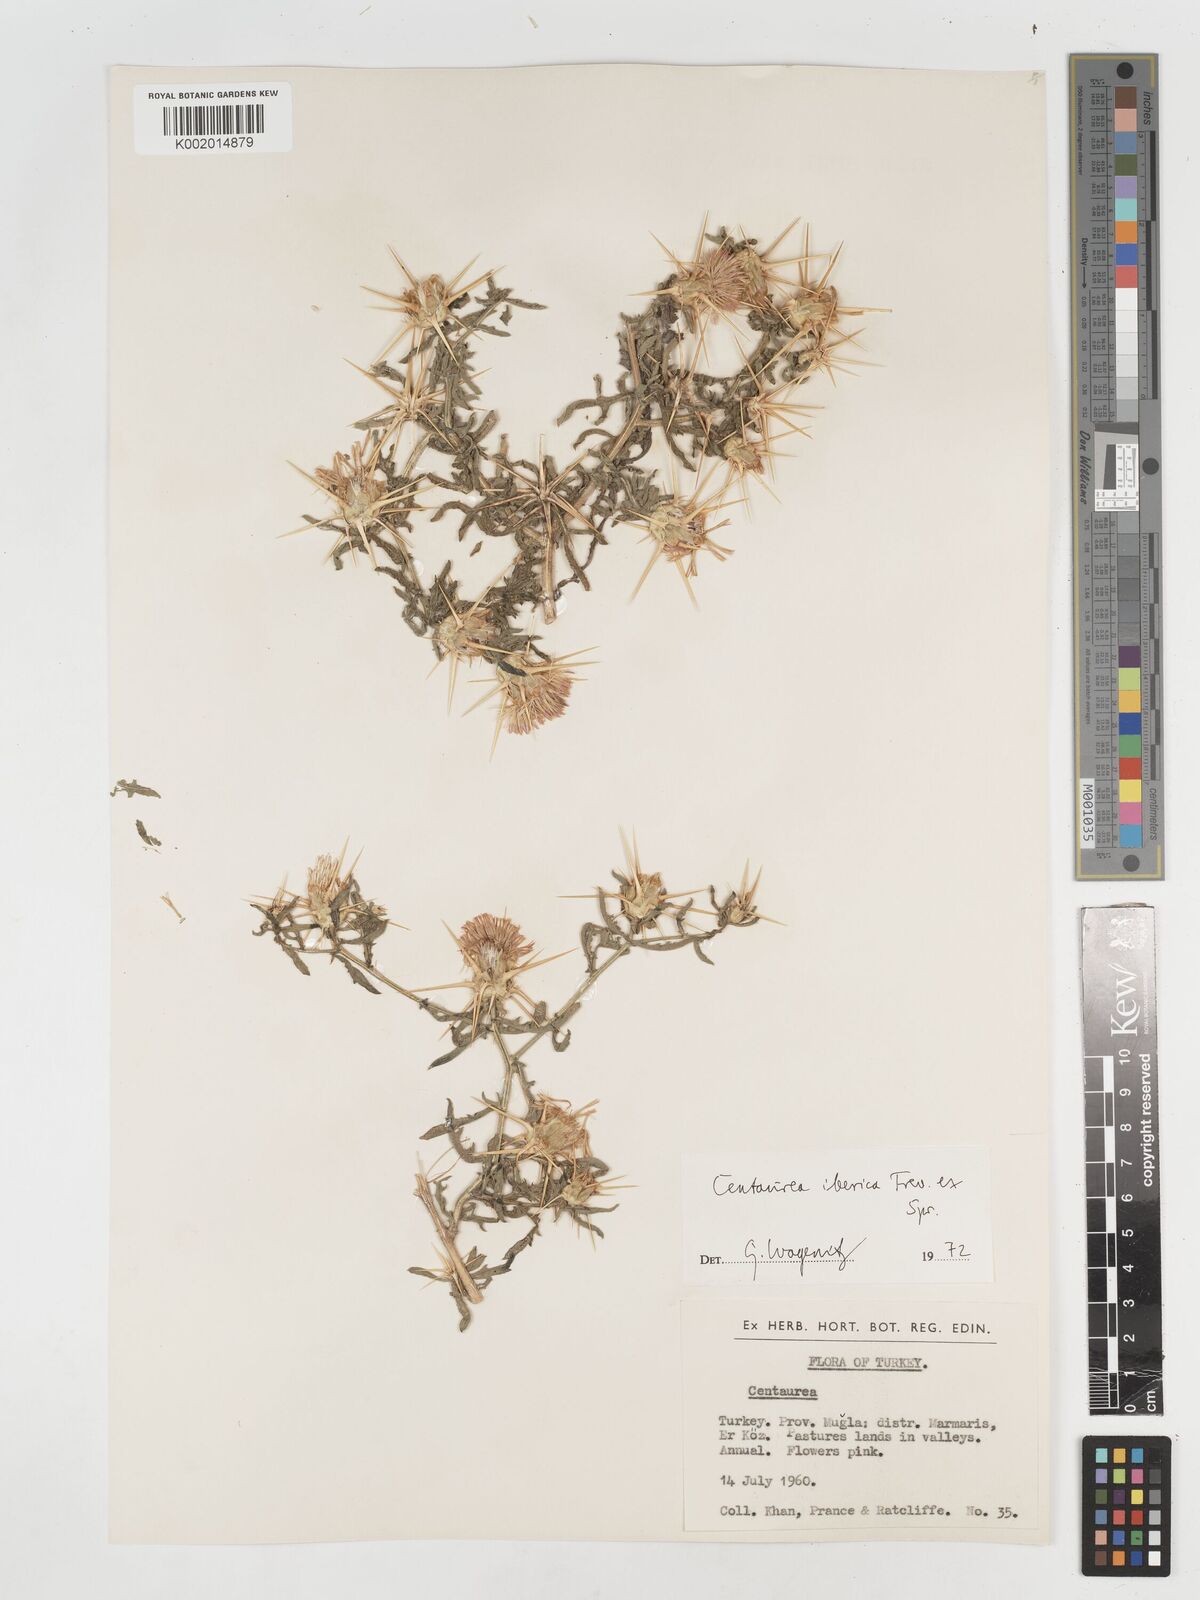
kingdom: Plantae
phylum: Tracheophyta
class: Magnoliopsida
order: Asterales
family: Asteraceae
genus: Centaurea
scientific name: Centaurea iberica
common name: Iberian knapweed
